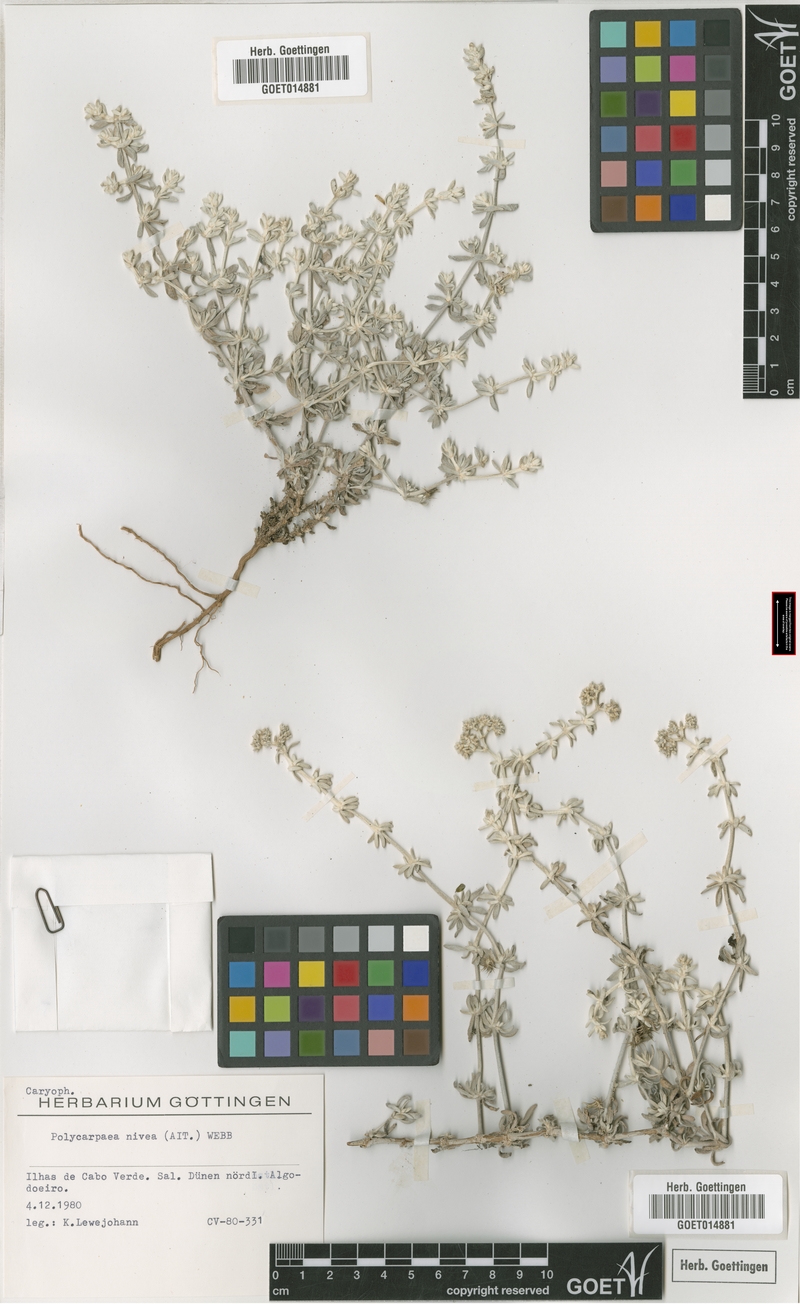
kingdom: Plantae
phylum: Tracheophyta
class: Magnoliopsida
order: Caryophyllales
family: Caryophyllaceae
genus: Polycarpaea
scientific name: Polycarpaea nivea
